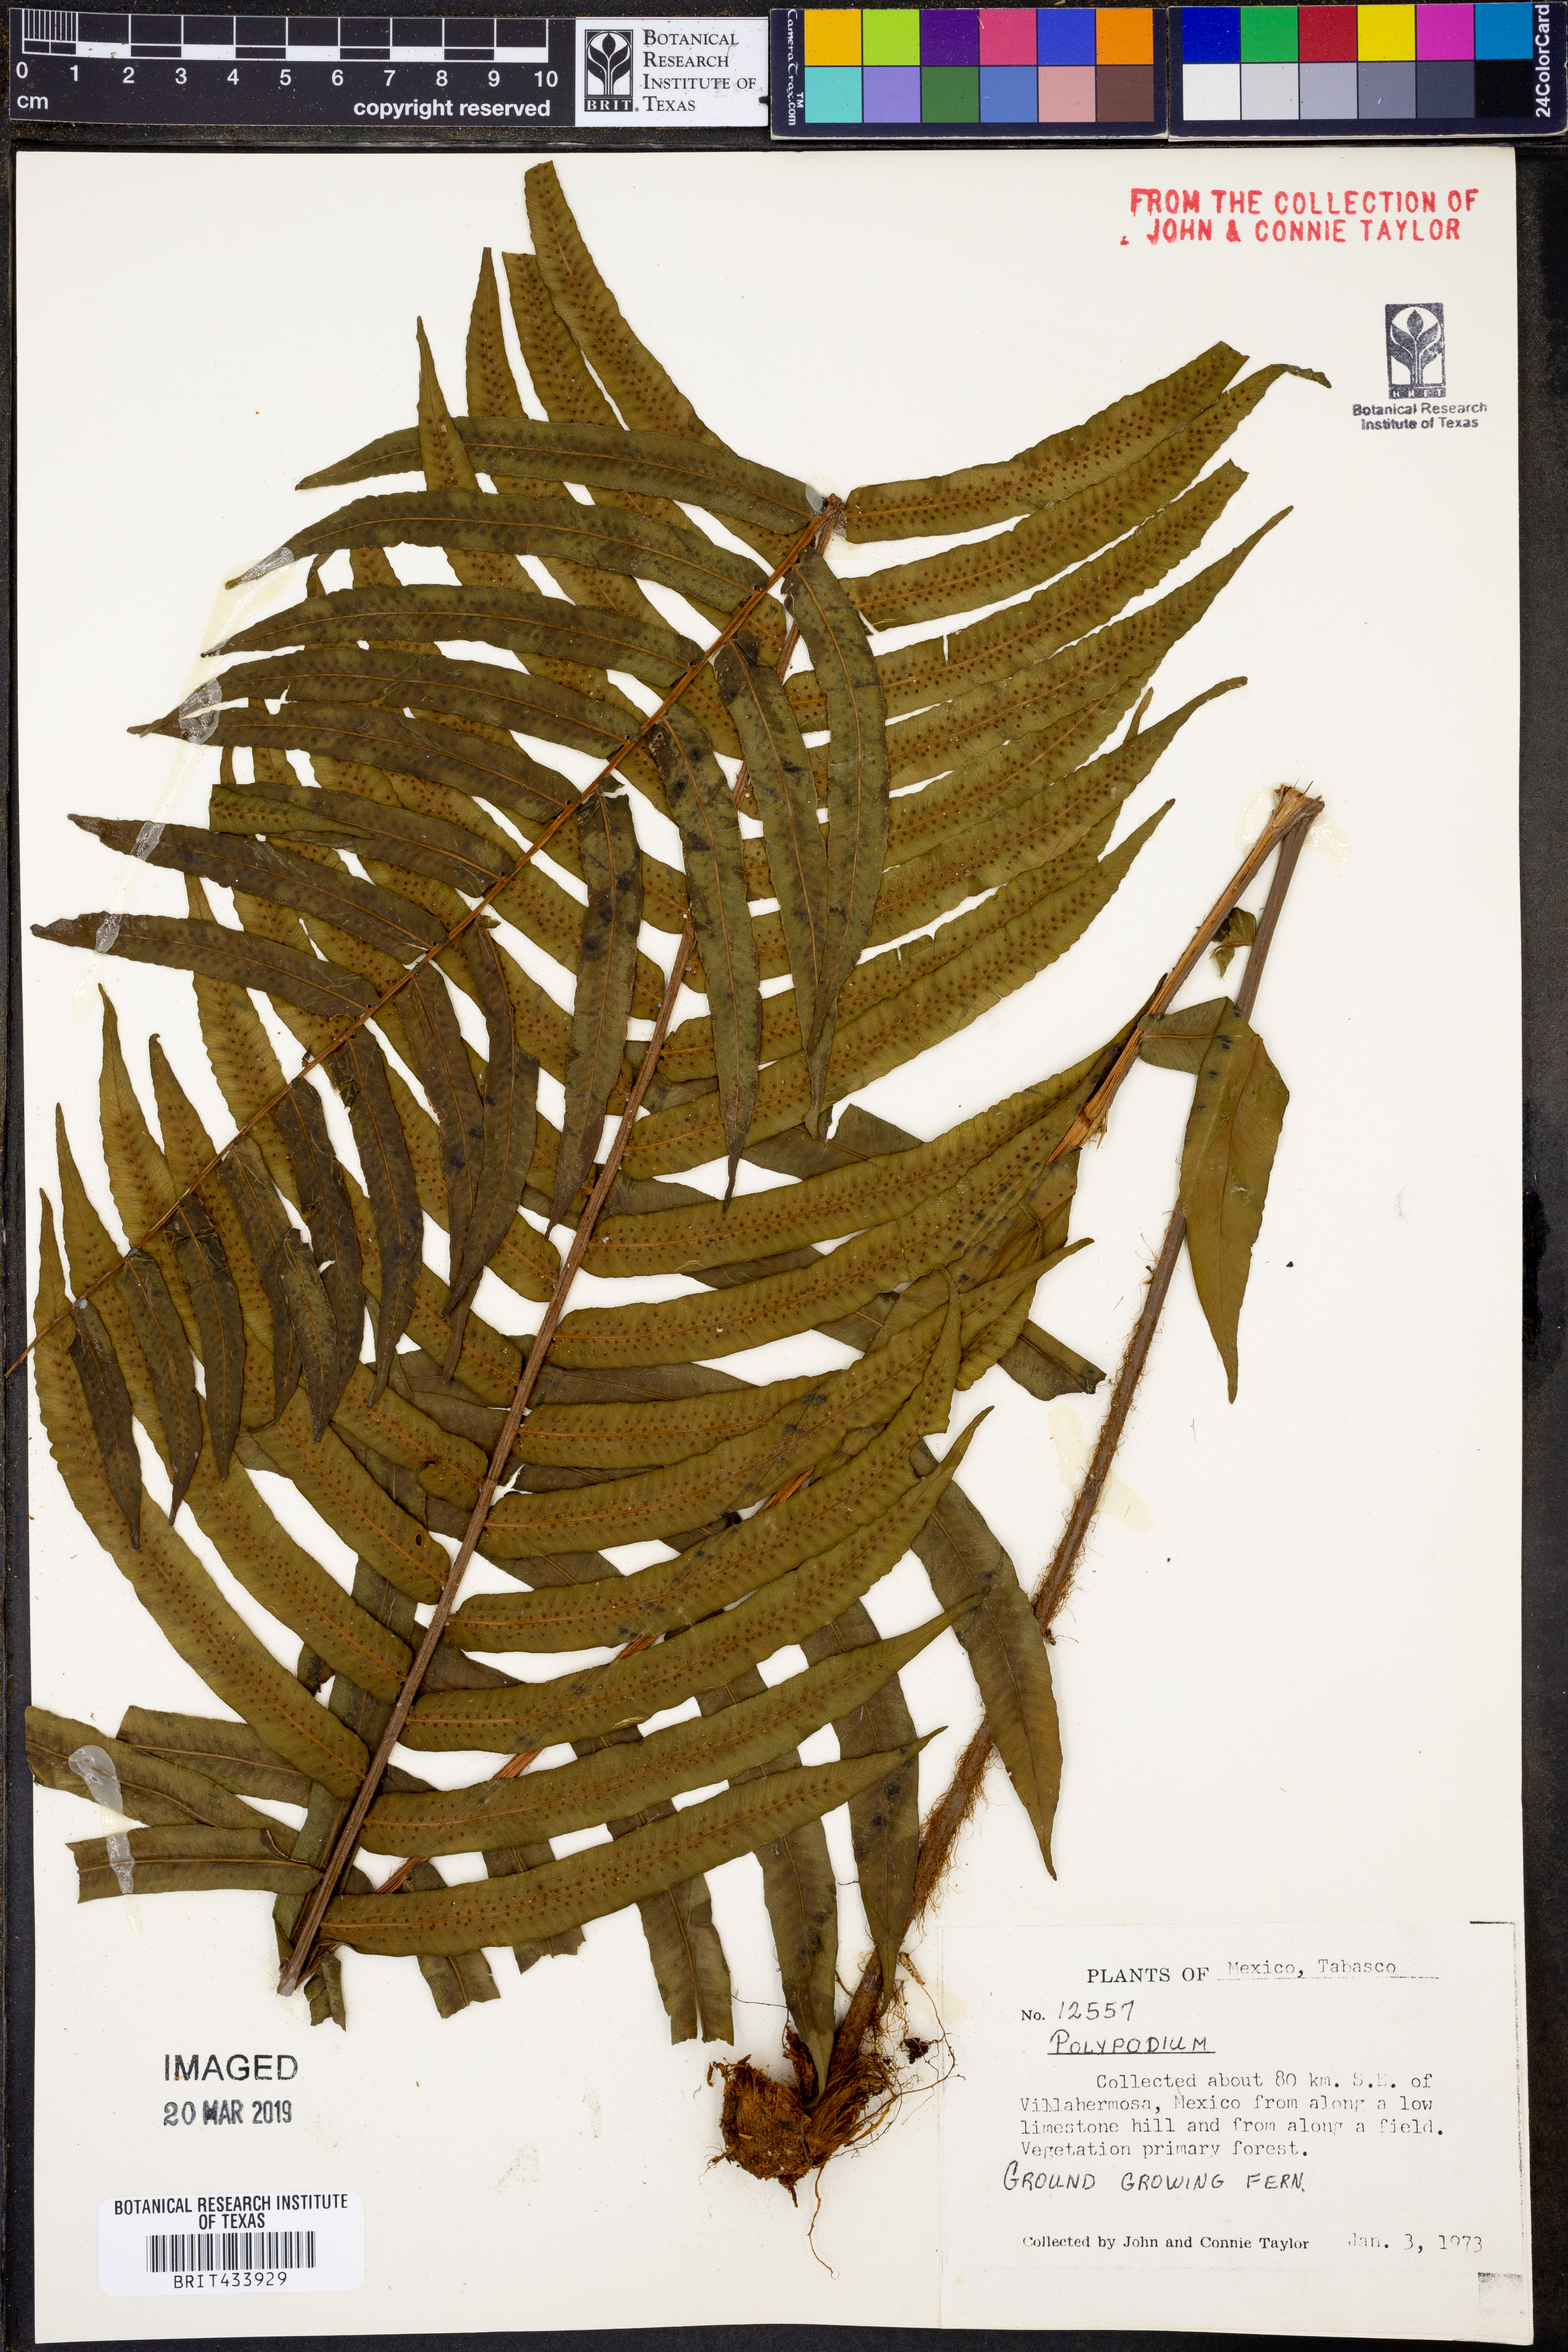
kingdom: Plantae
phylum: Tracheophyta
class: Polypodiopsida
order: Polypodiales
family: Polypodiaceae
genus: Polypodium
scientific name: Polypodium
